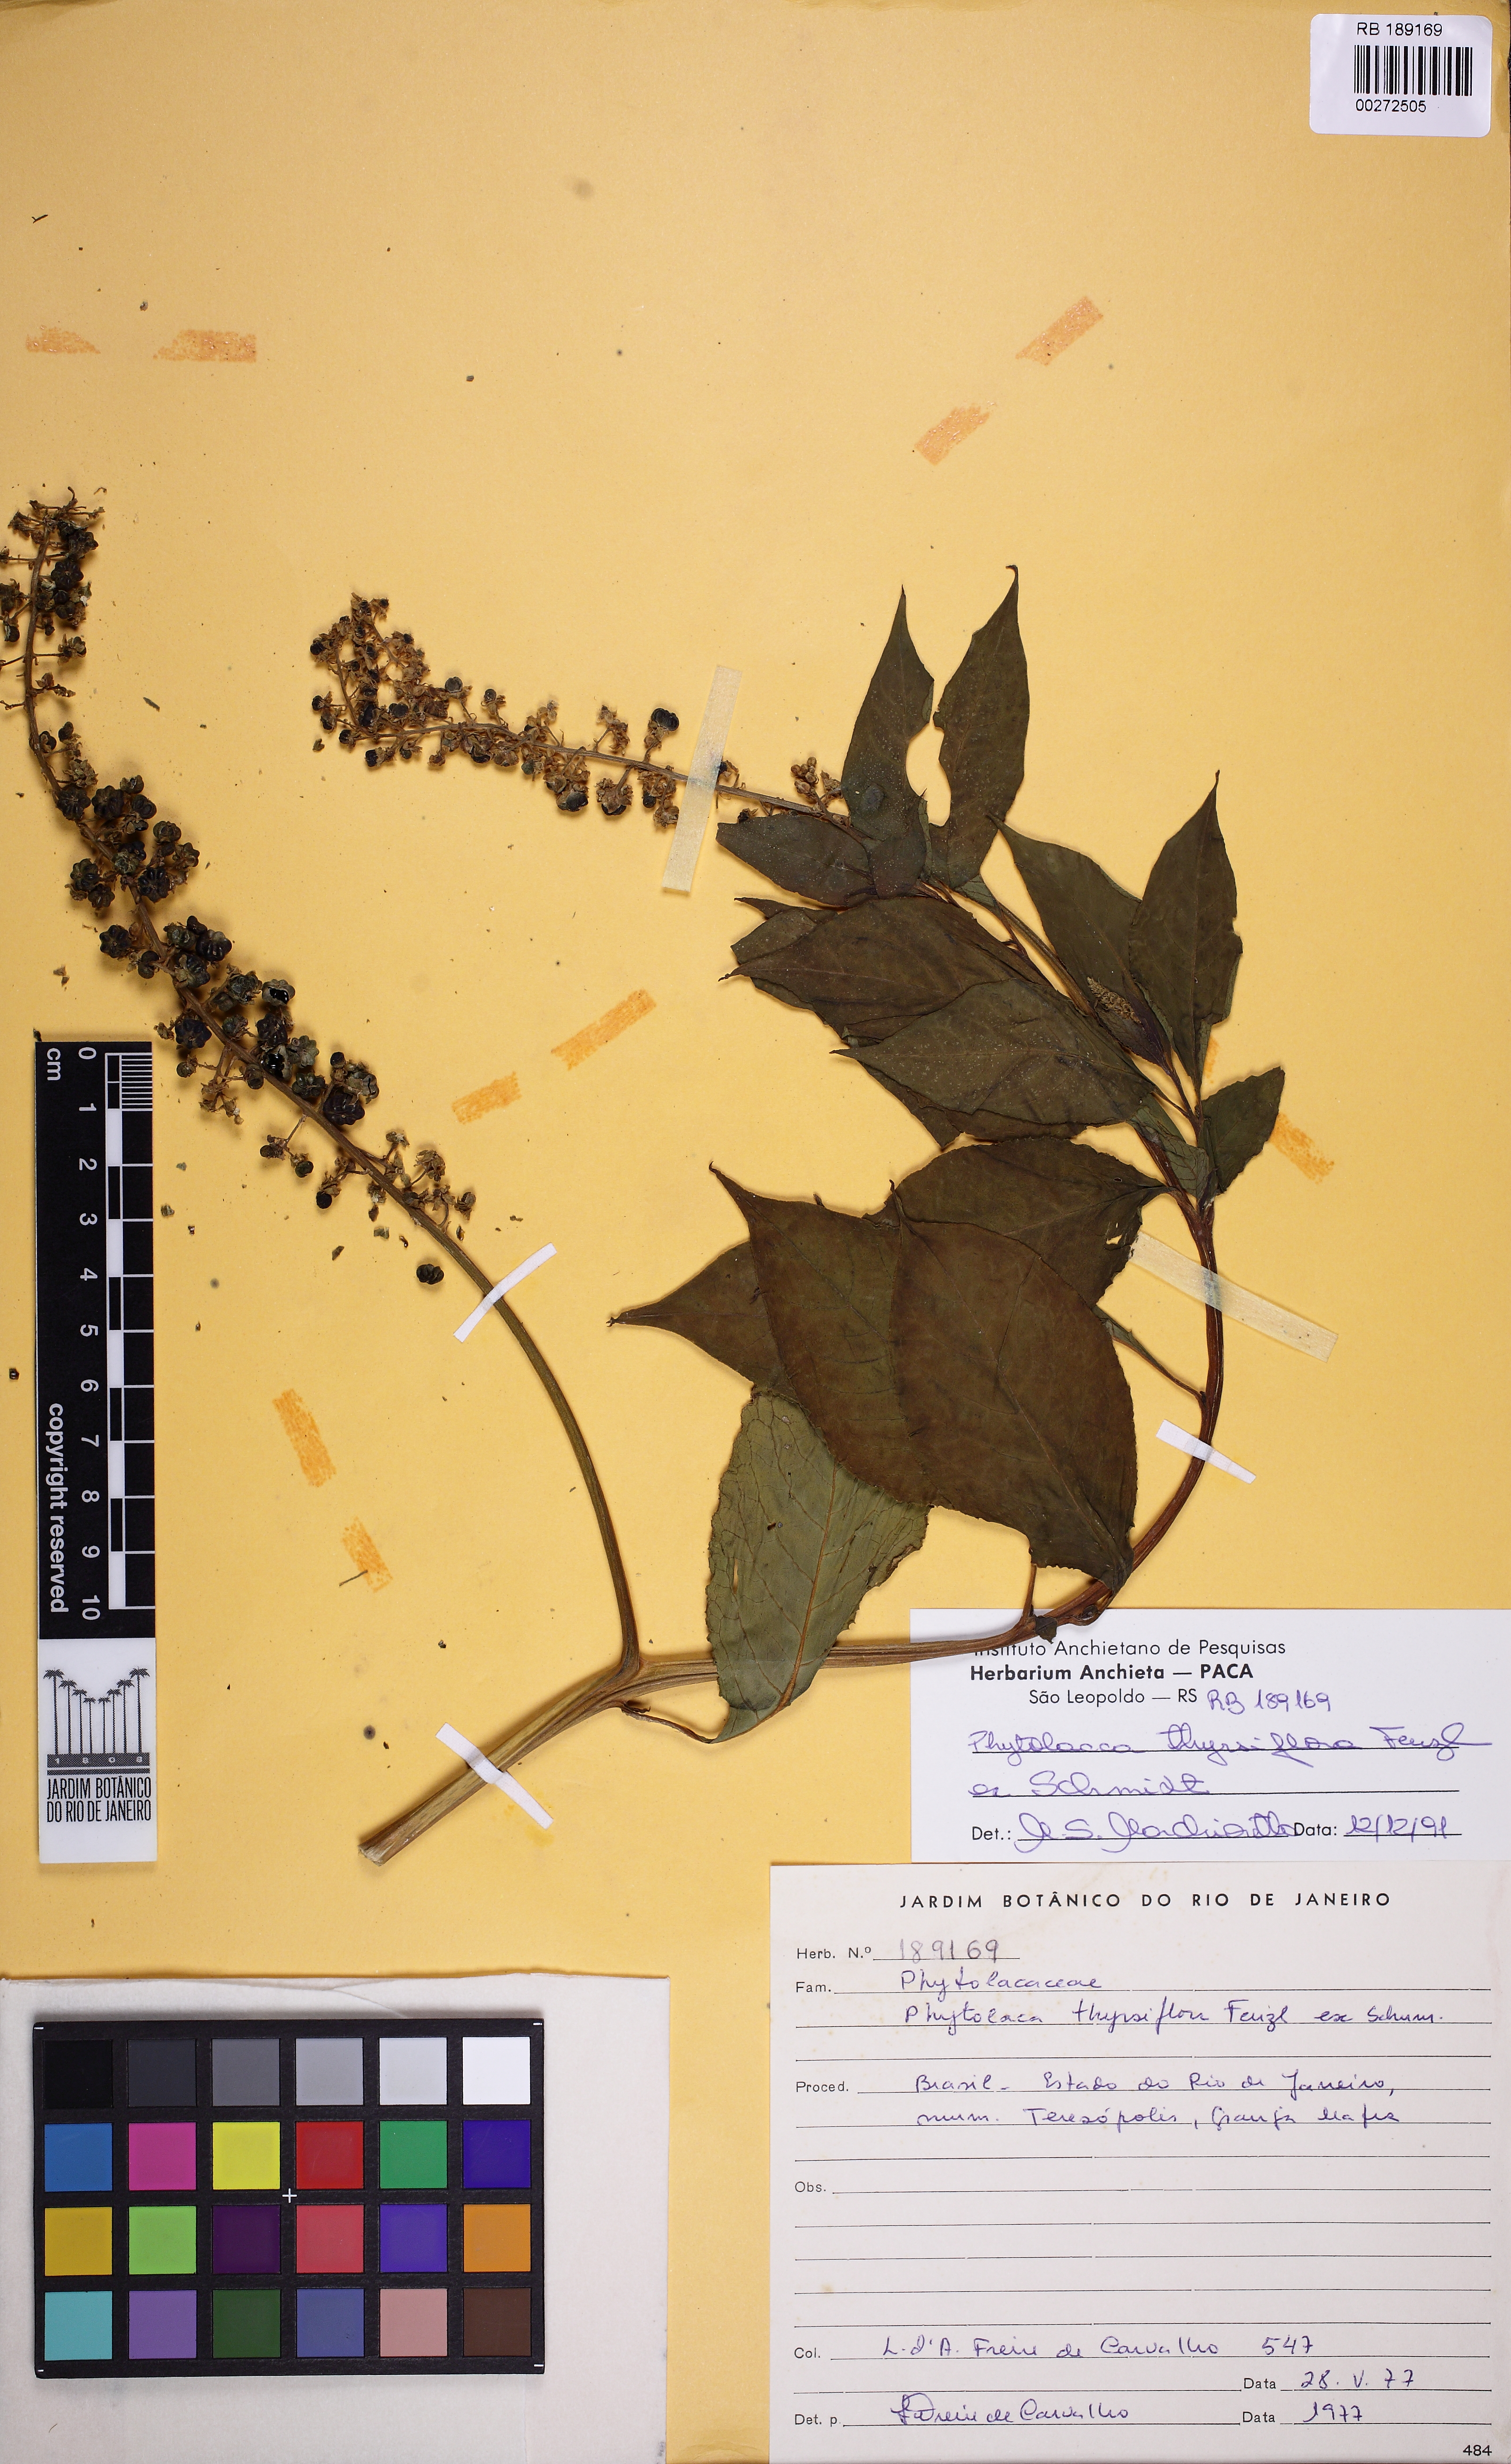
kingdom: Plantae
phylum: Tracheophyta
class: Magnoliopsida
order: Caryophyllales
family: Phytolaccaceae
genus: Phytolacca
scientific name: Phytolacca thyrsiflora
